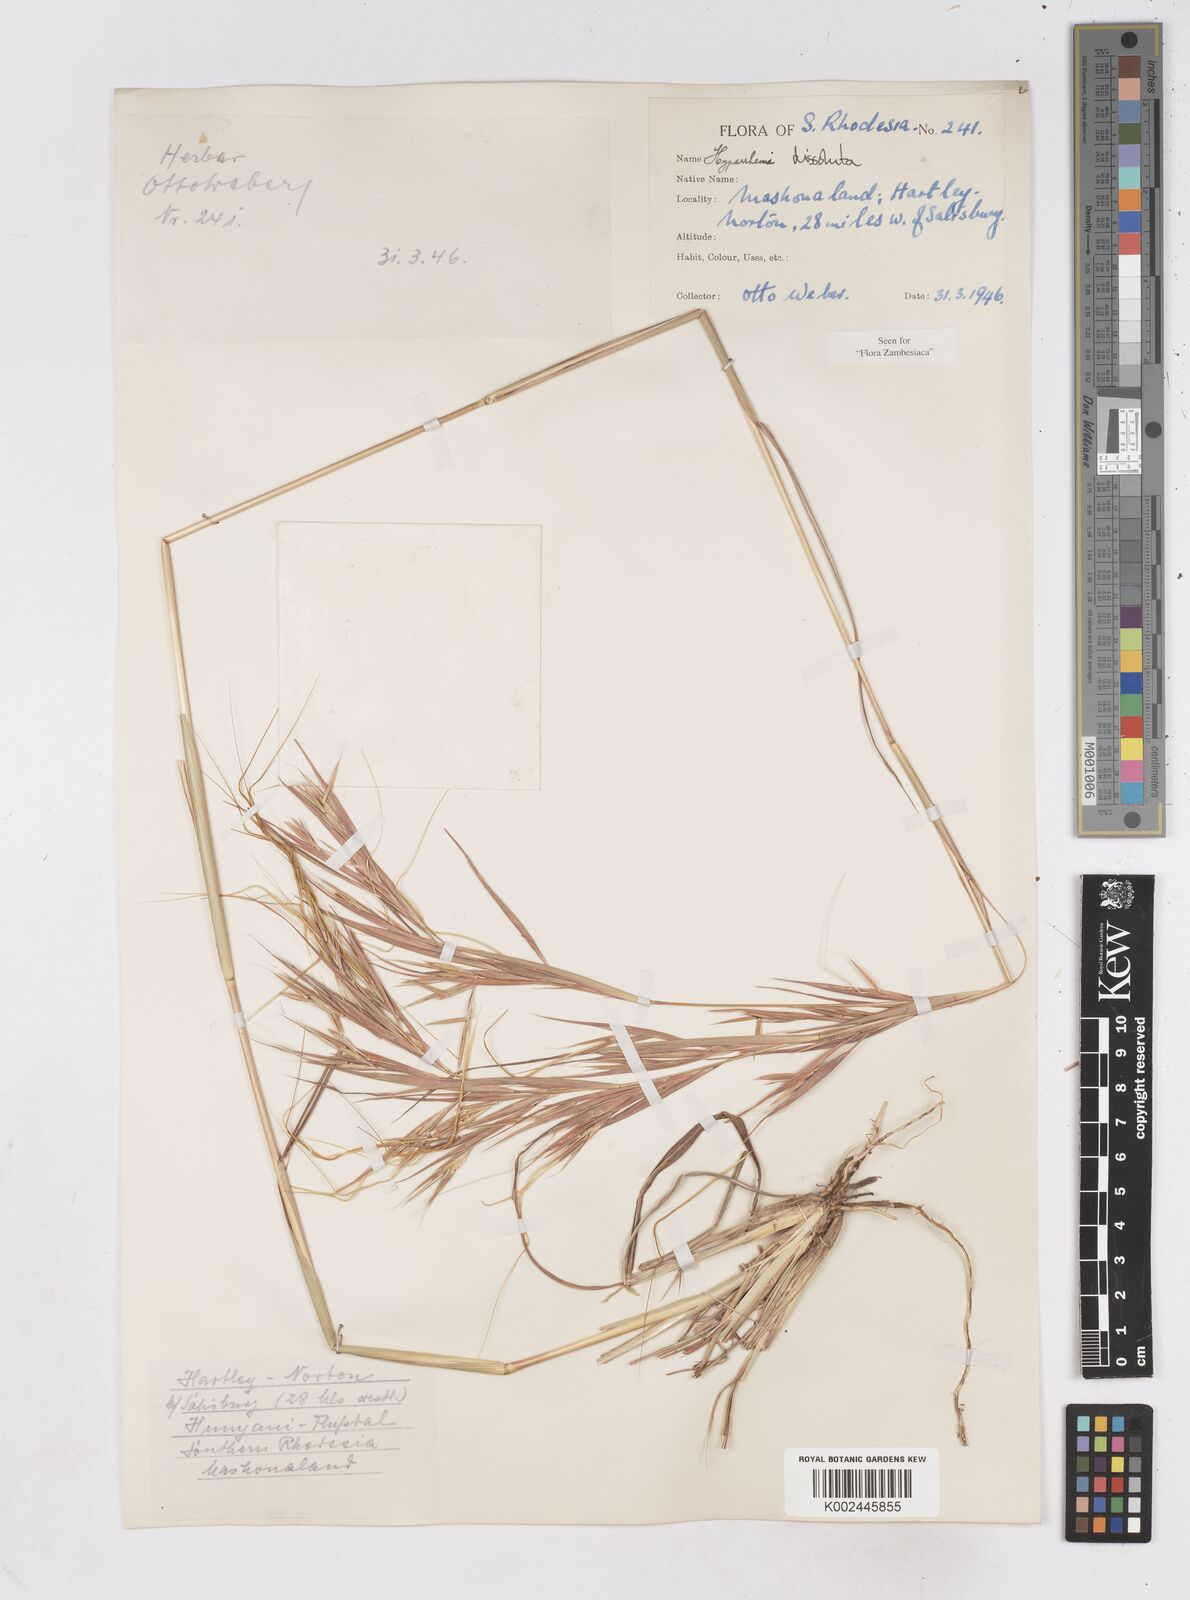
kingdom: Plantae
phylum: Tracheophyta
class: Liliopsida
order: Poales
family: Poaceae
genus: Hyperthelia
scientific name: Hyperthelia dissoluta
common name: Yellow thatching grass
